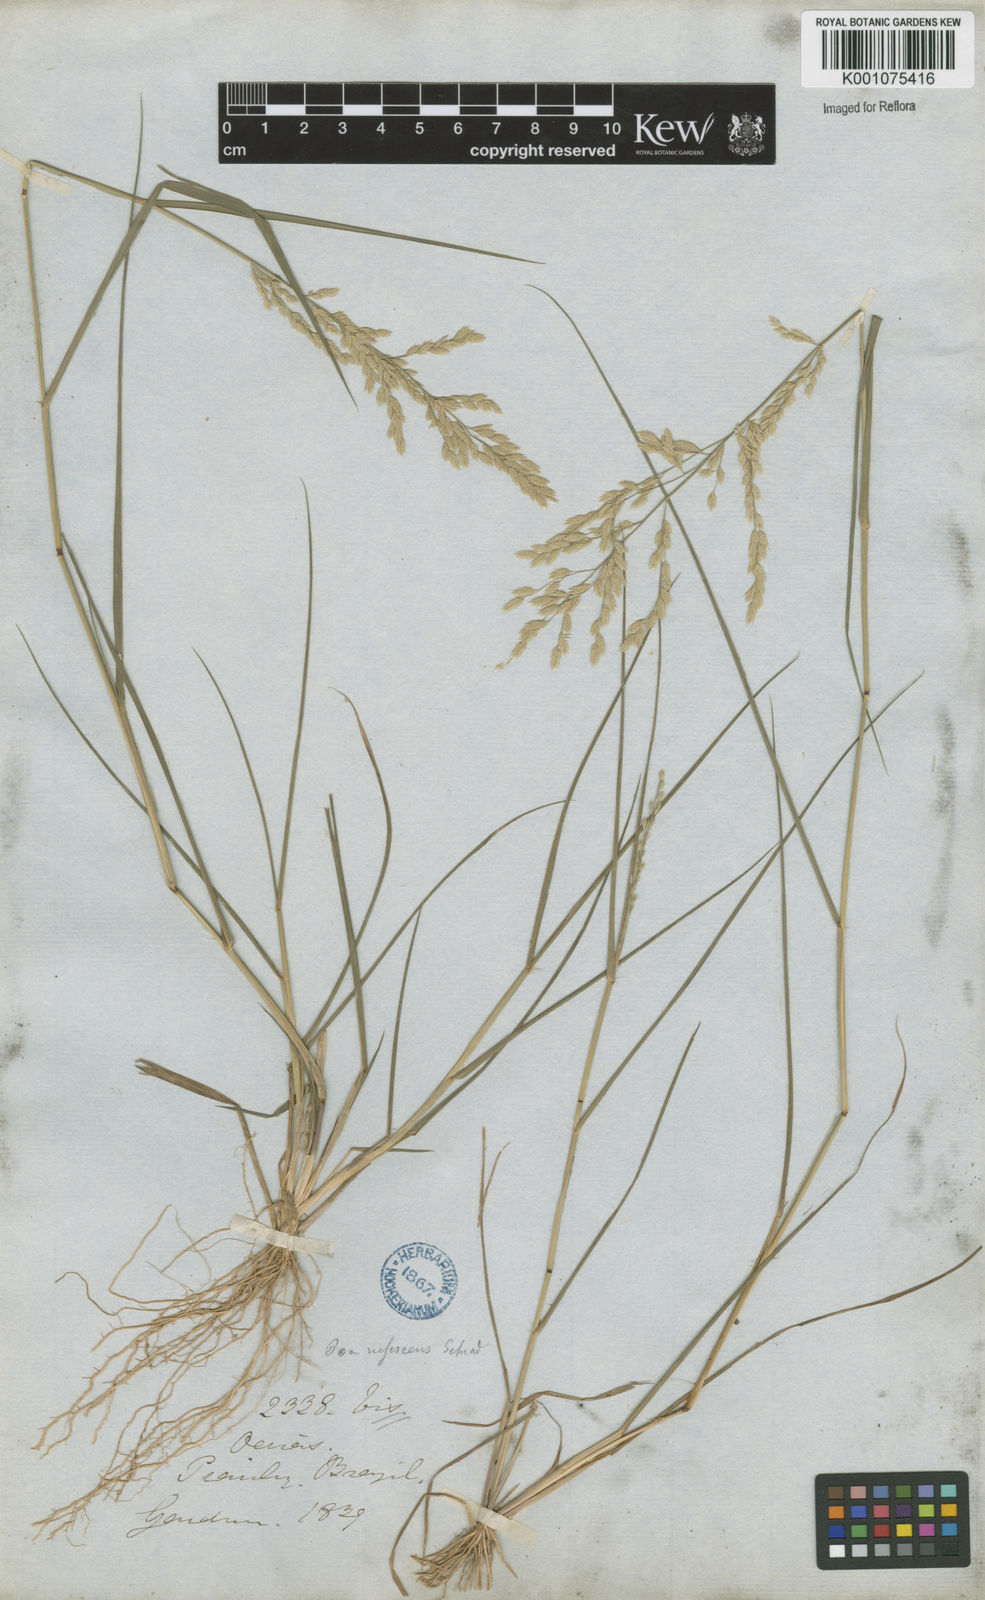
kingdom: Plantae
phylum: Tracheophyta
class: Liliopsida
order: Poales
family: Poaceae
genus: Eragrostis
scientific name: Eragrostis rufescens
